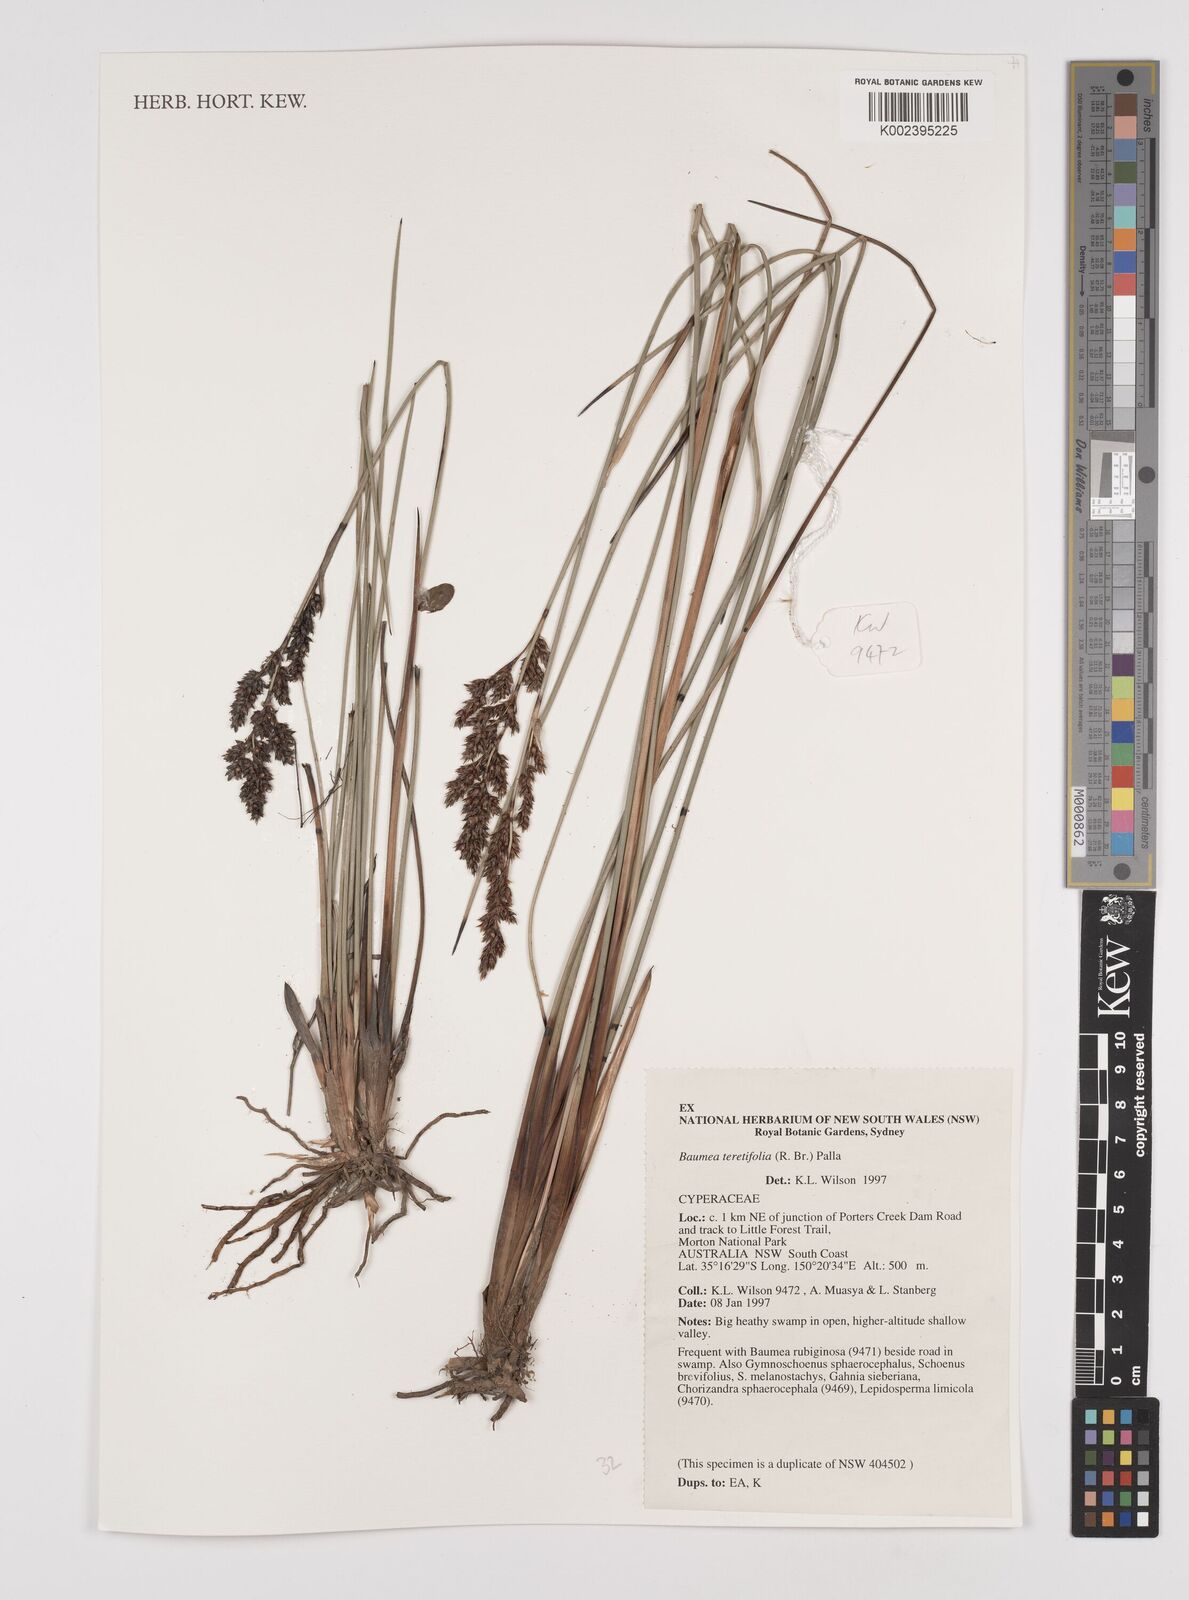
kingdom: Plantae
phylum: Tracheophyta
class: Liliopsida
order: Poales
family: Cyperaceae
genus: Machaerina
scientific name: Machaerina teretifolia
